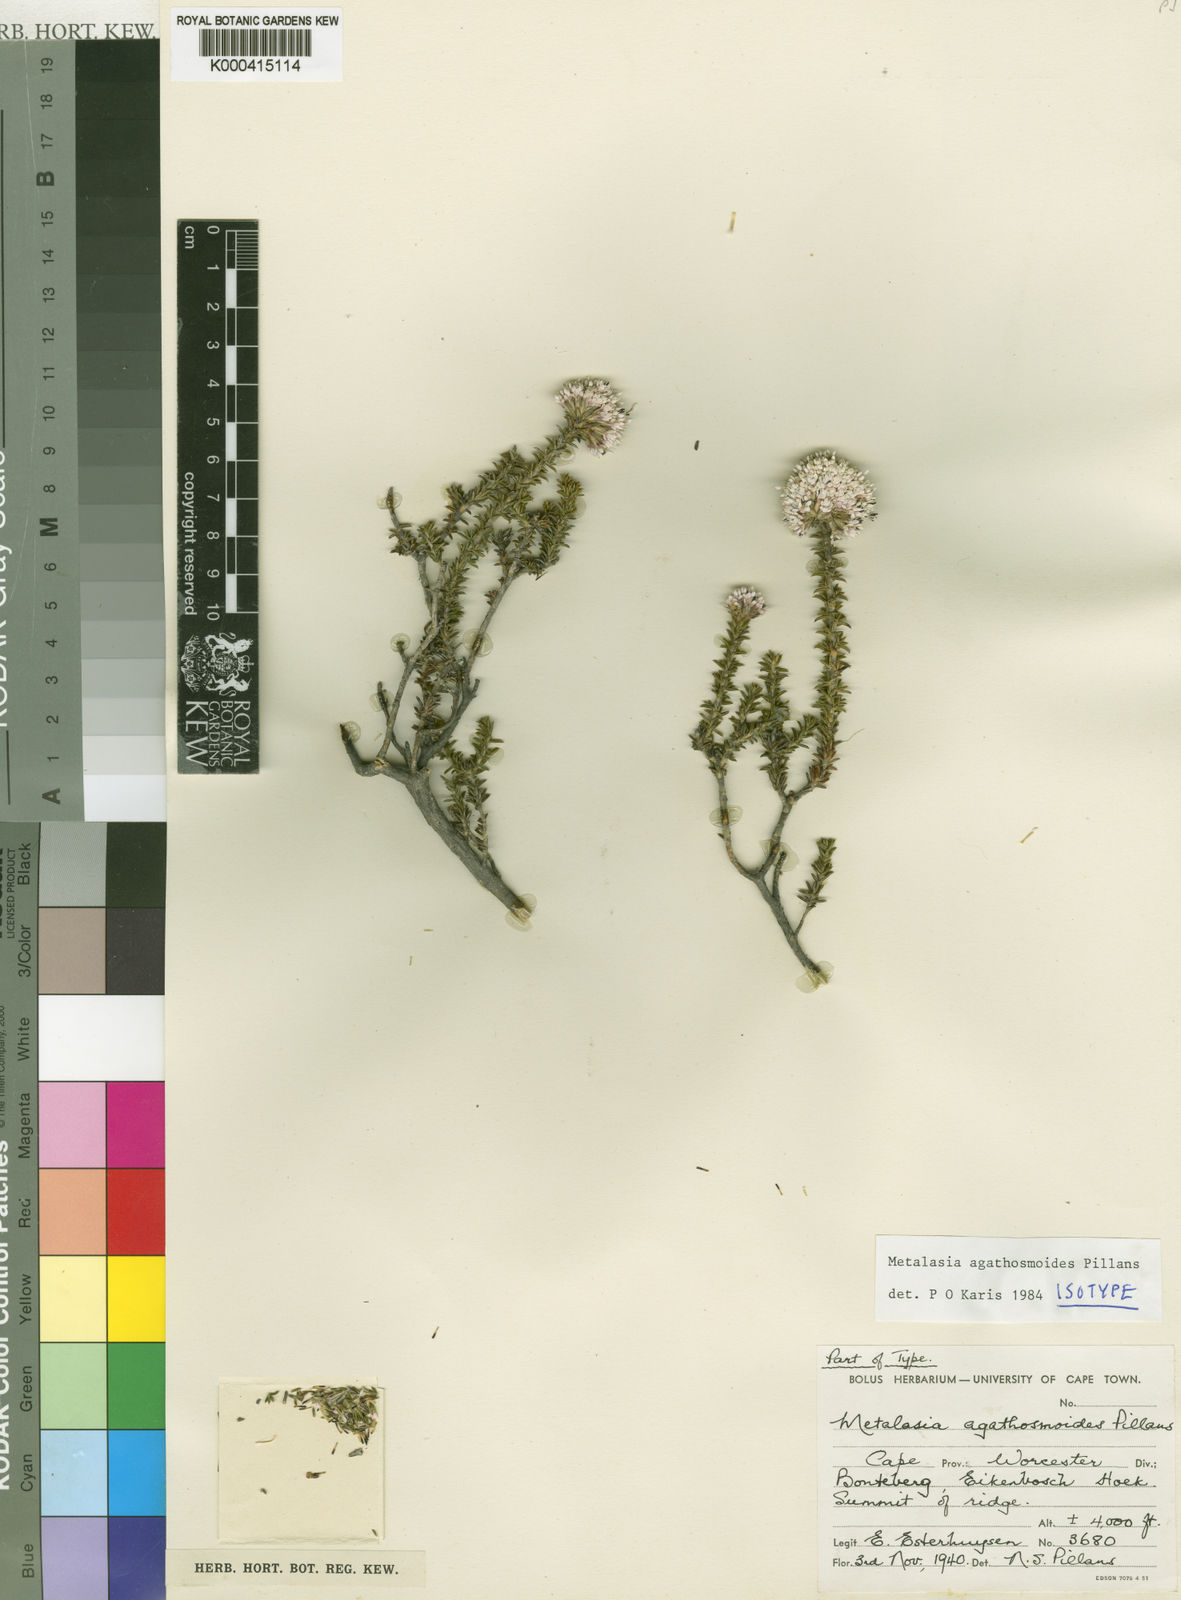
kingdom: Plantae
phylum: Tracheophyta
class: Magnoliopsida
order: Asterales
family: Asteraceae
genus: Metalasia
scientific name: Metalasia agathosmoides
